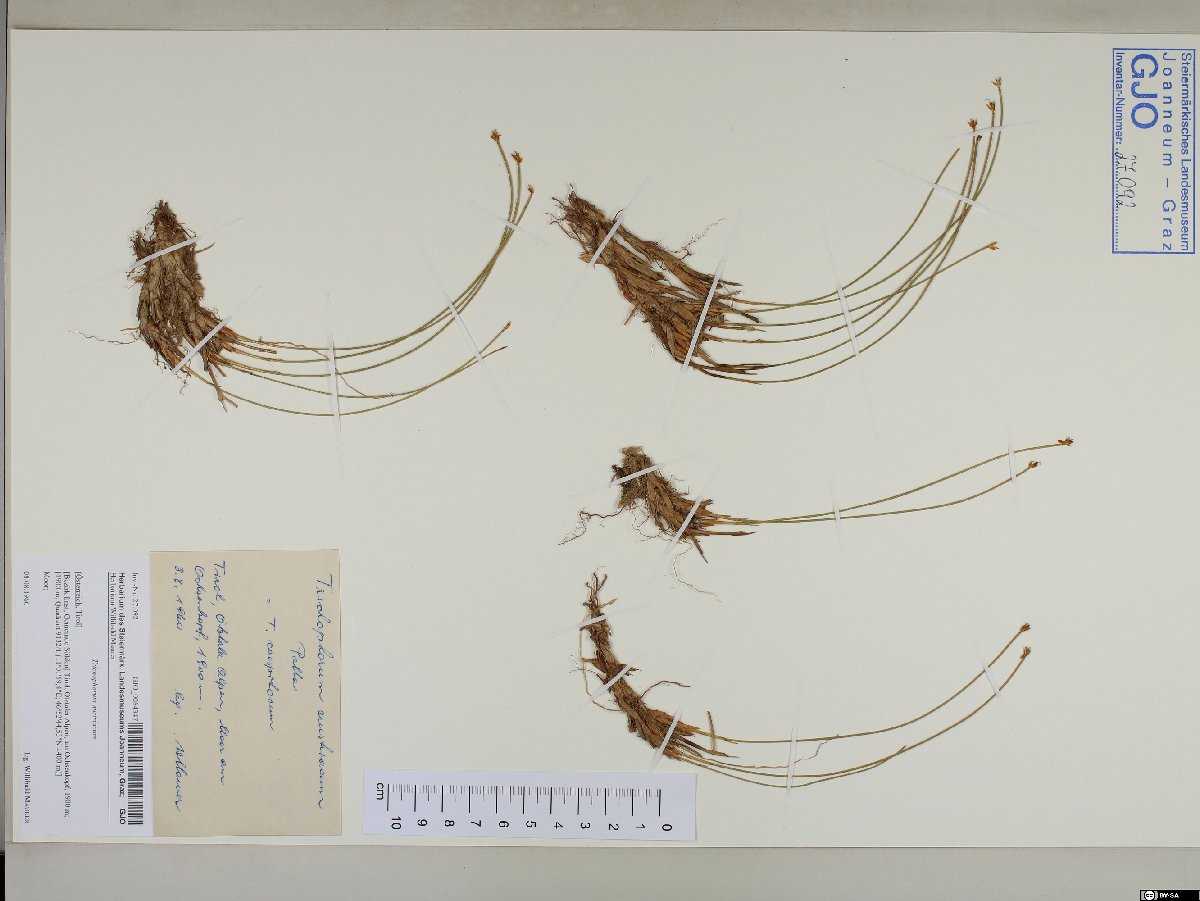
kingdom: Plantae
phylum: Tracheophyta
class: Liliopsida
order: Poales
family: Cyperaceae
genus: Trichophorum
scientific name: Trichophorum cespitosum
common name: Cespitose bulrush
